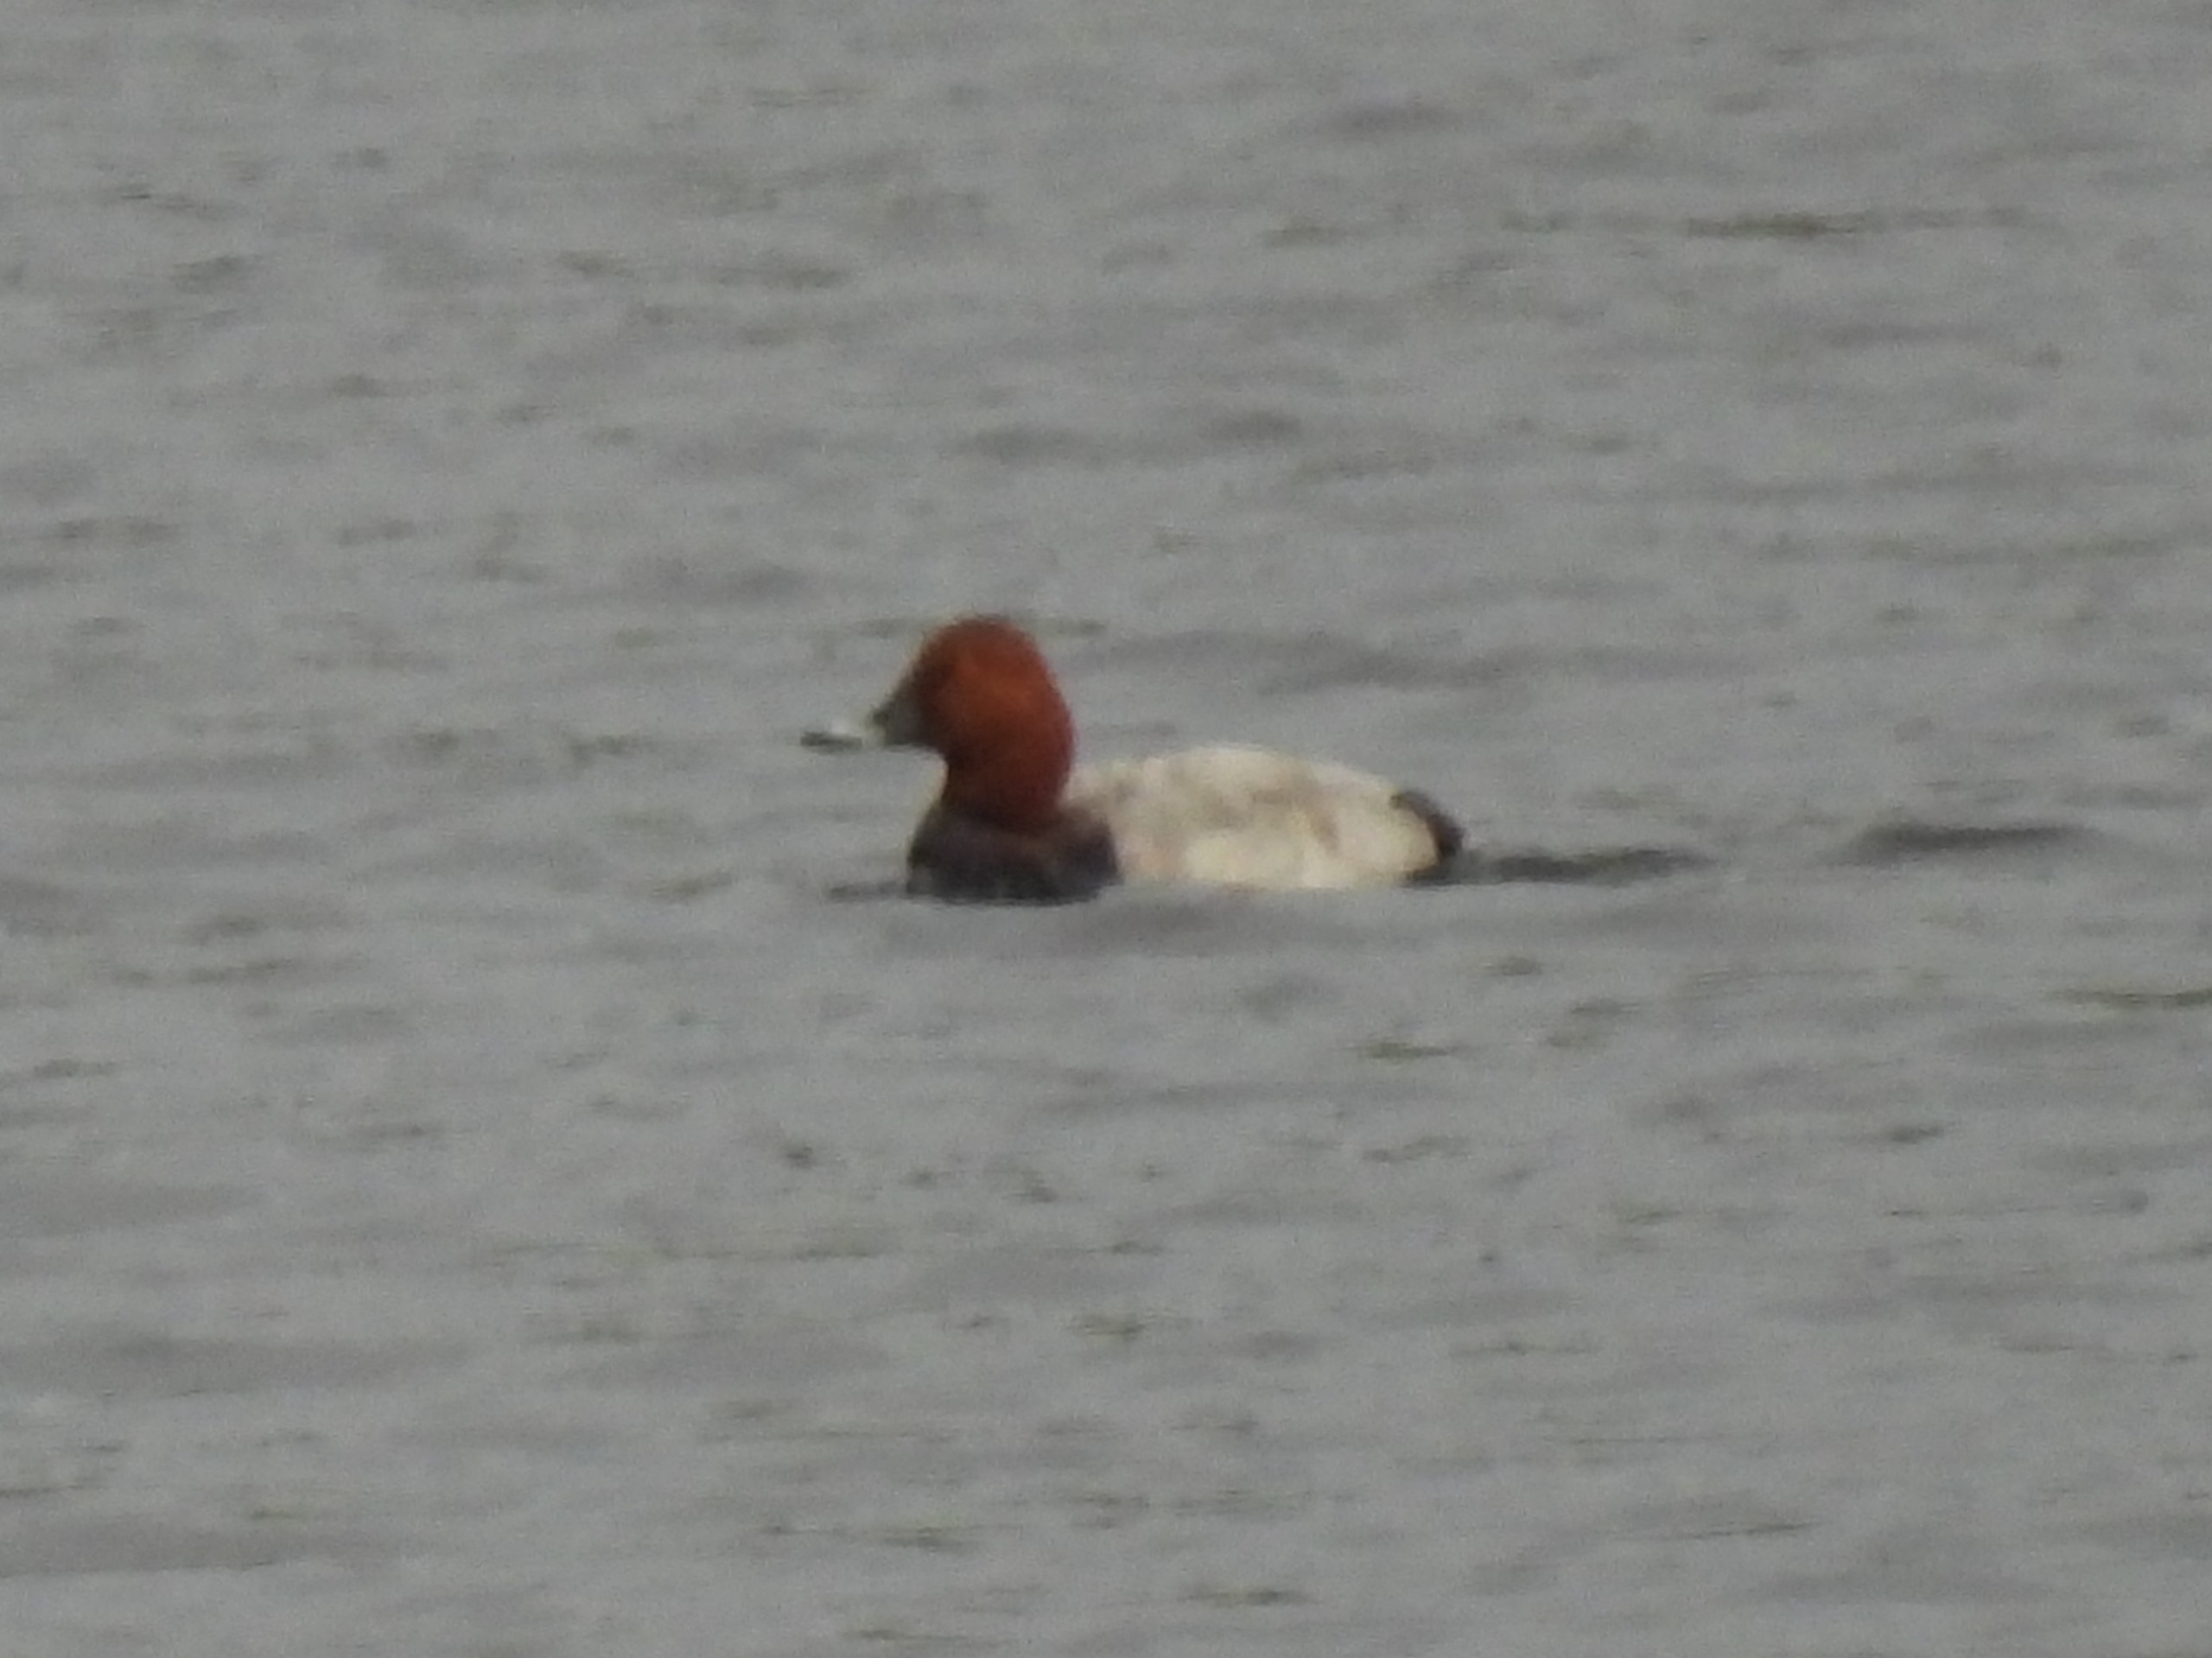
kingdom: Animalia
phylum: Chordata
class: Aves
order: Anseriformes
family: Anatidae
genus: Aythya
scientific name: Aythya ferina
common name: Taffeland
